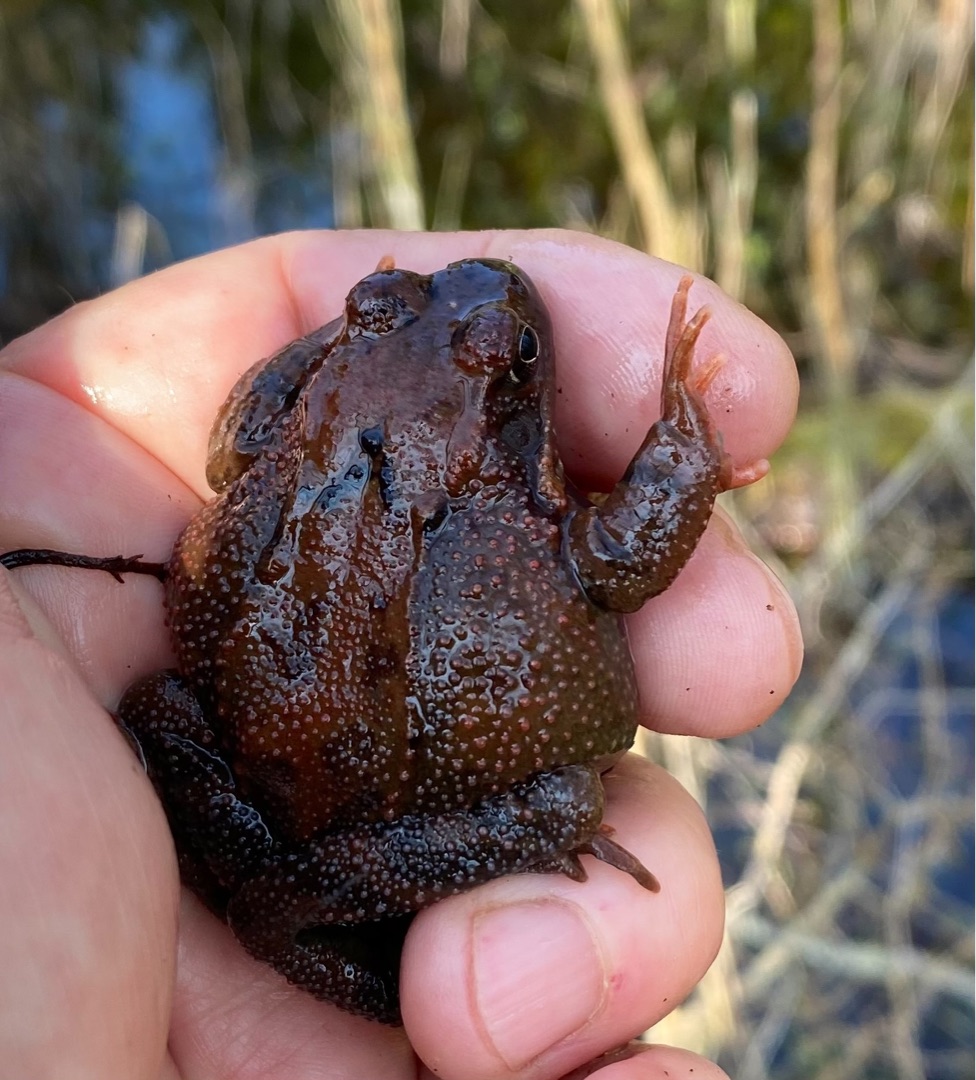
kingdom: Animalia
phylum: Chordata
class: Amphibia
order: Anura
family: Ranidae
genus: Rana
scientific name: Rana temporaria
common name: Butsnudet frø
